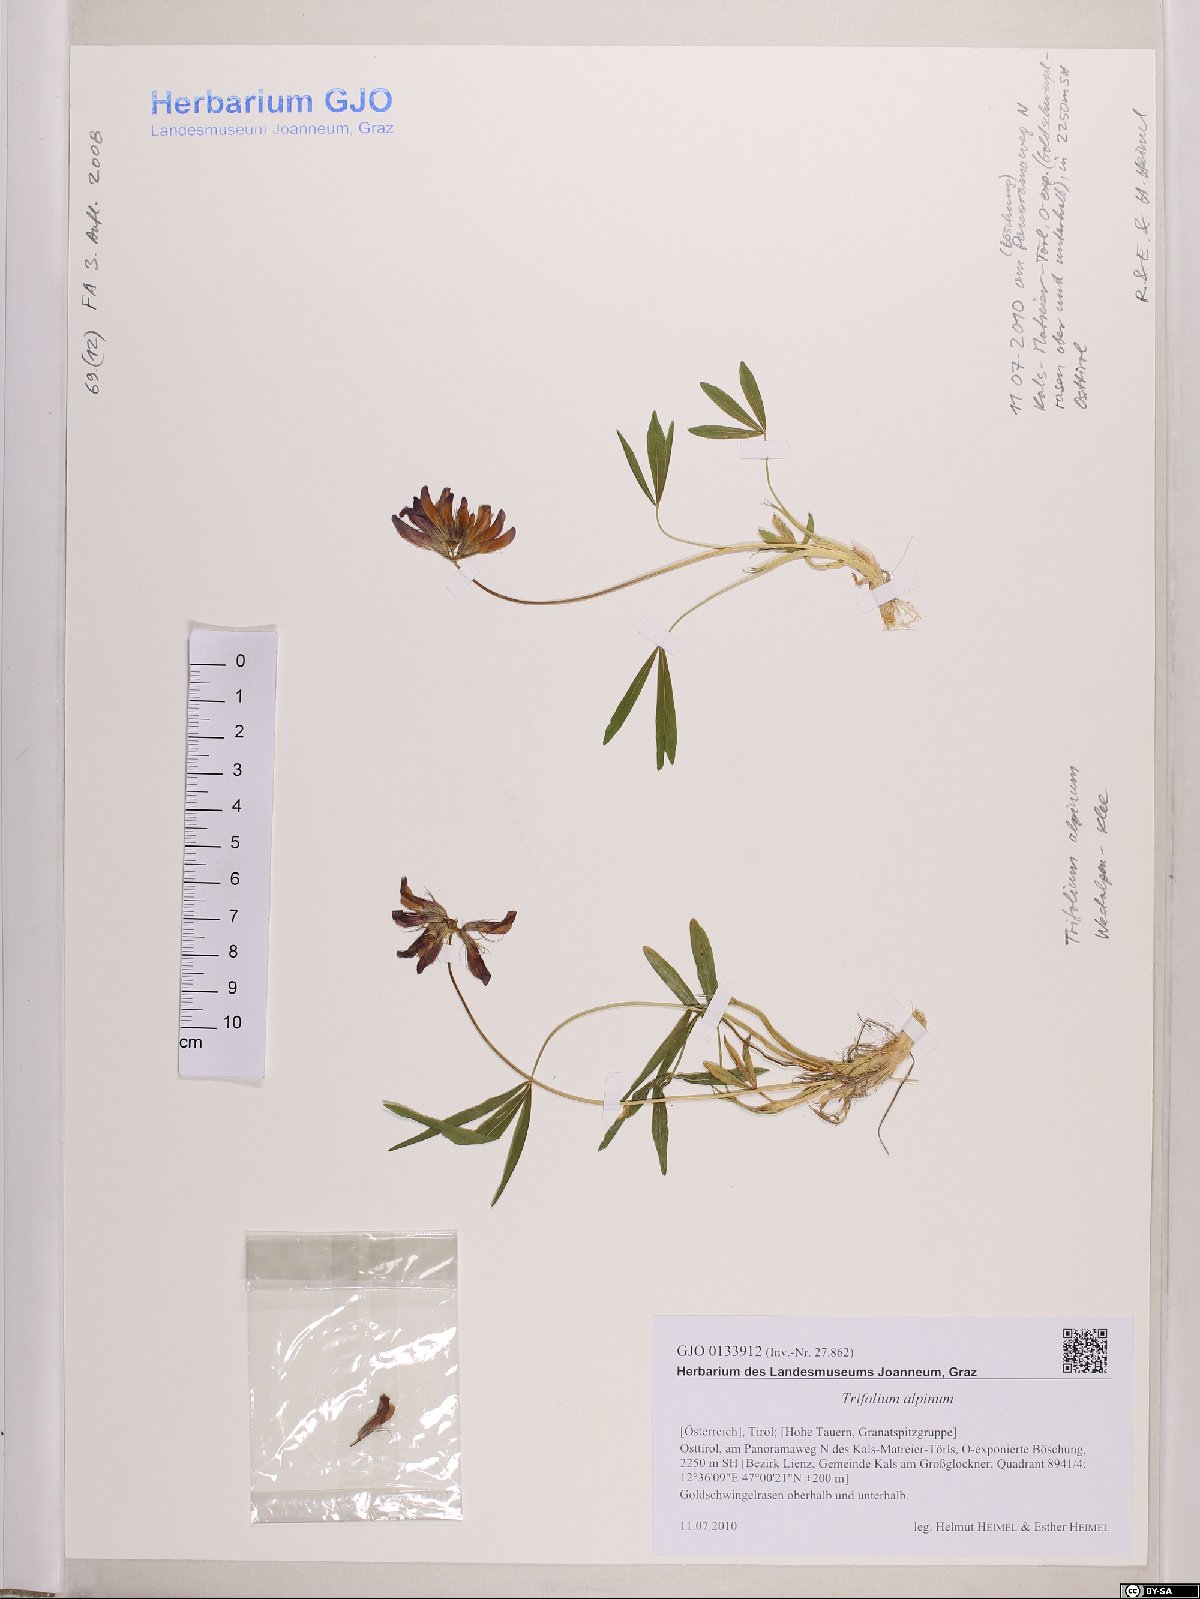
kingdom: Plantae
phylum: Tracheophyta
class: Magnoliopsida
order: Fabales
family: Fabaceae
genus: Trifolium
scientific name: Trifolium alpinum
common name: Alpine clover
